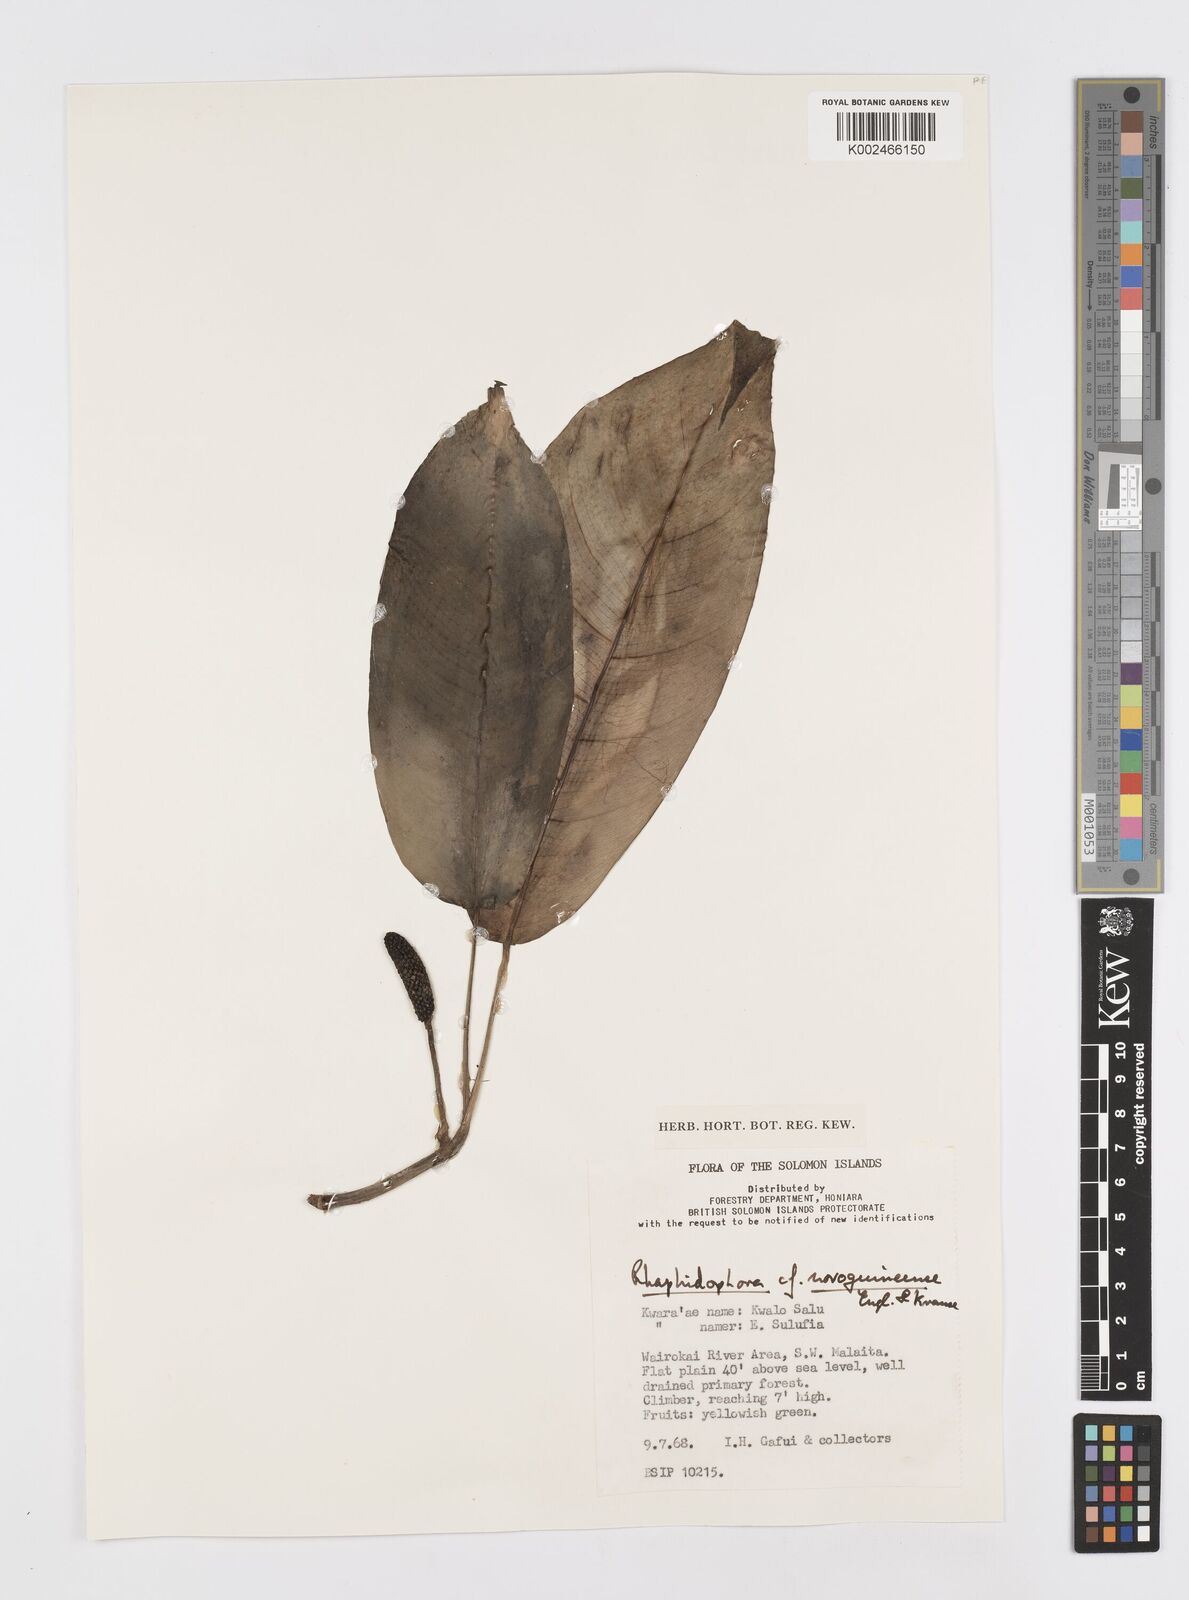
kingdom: Plantae
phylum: Tracheophyta
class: Liliopsida
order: Alismatales
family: Araceae
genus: Rhaphidophora
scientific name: Rhaphidophora mima
